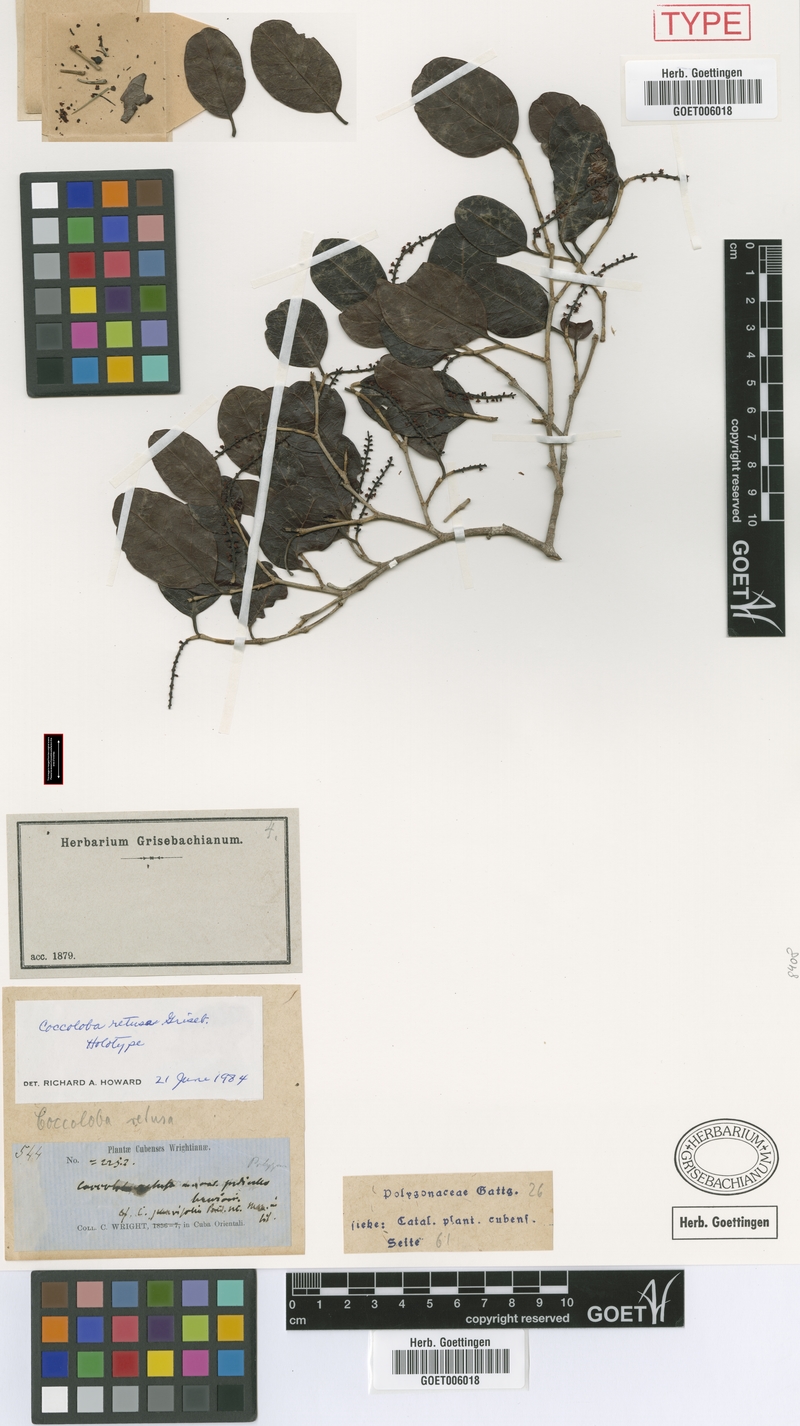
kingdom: Plantae
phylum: Tracheophyta
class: Magnoliopsida
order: Caryophyllales
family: Polygonaceae
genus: Coccoloba
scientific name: Coccoloba retusa
